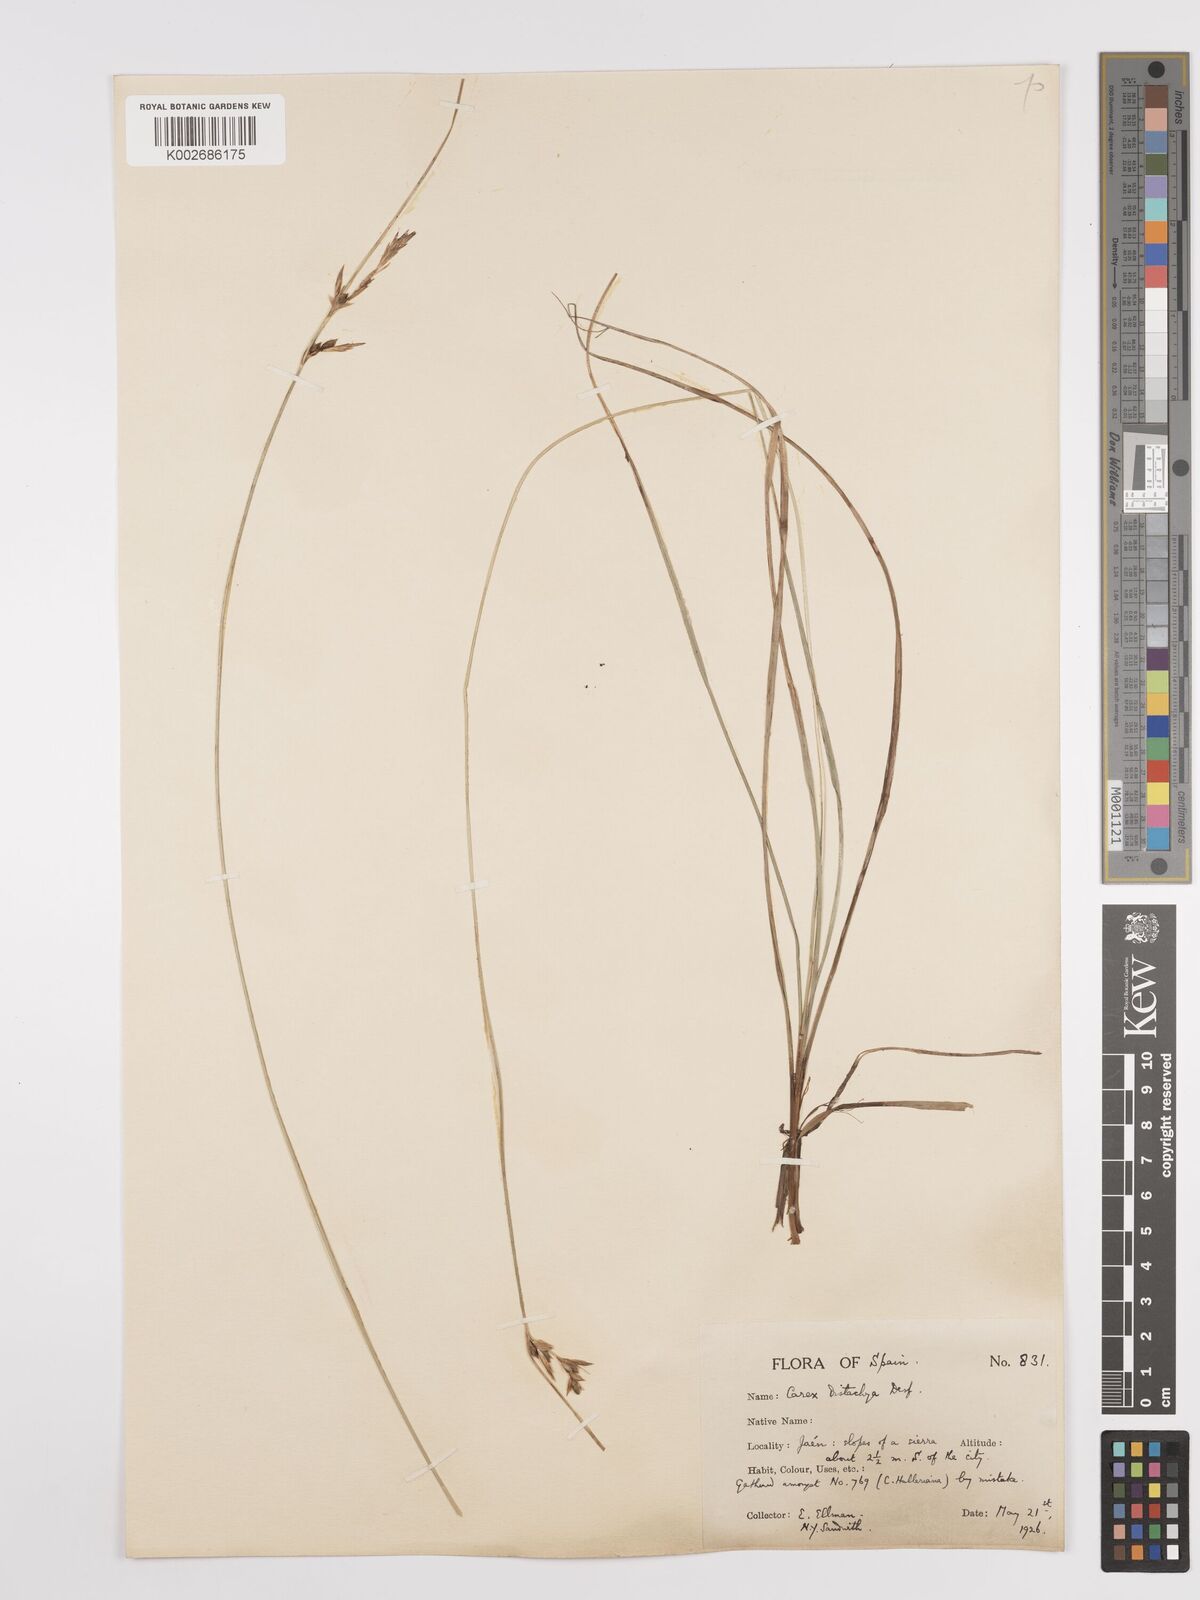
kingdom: Plantae
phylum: Tracheophyta
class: Liliopsida
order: Poales
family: Cyperaceae
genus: Carex
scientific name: Carex distachya
